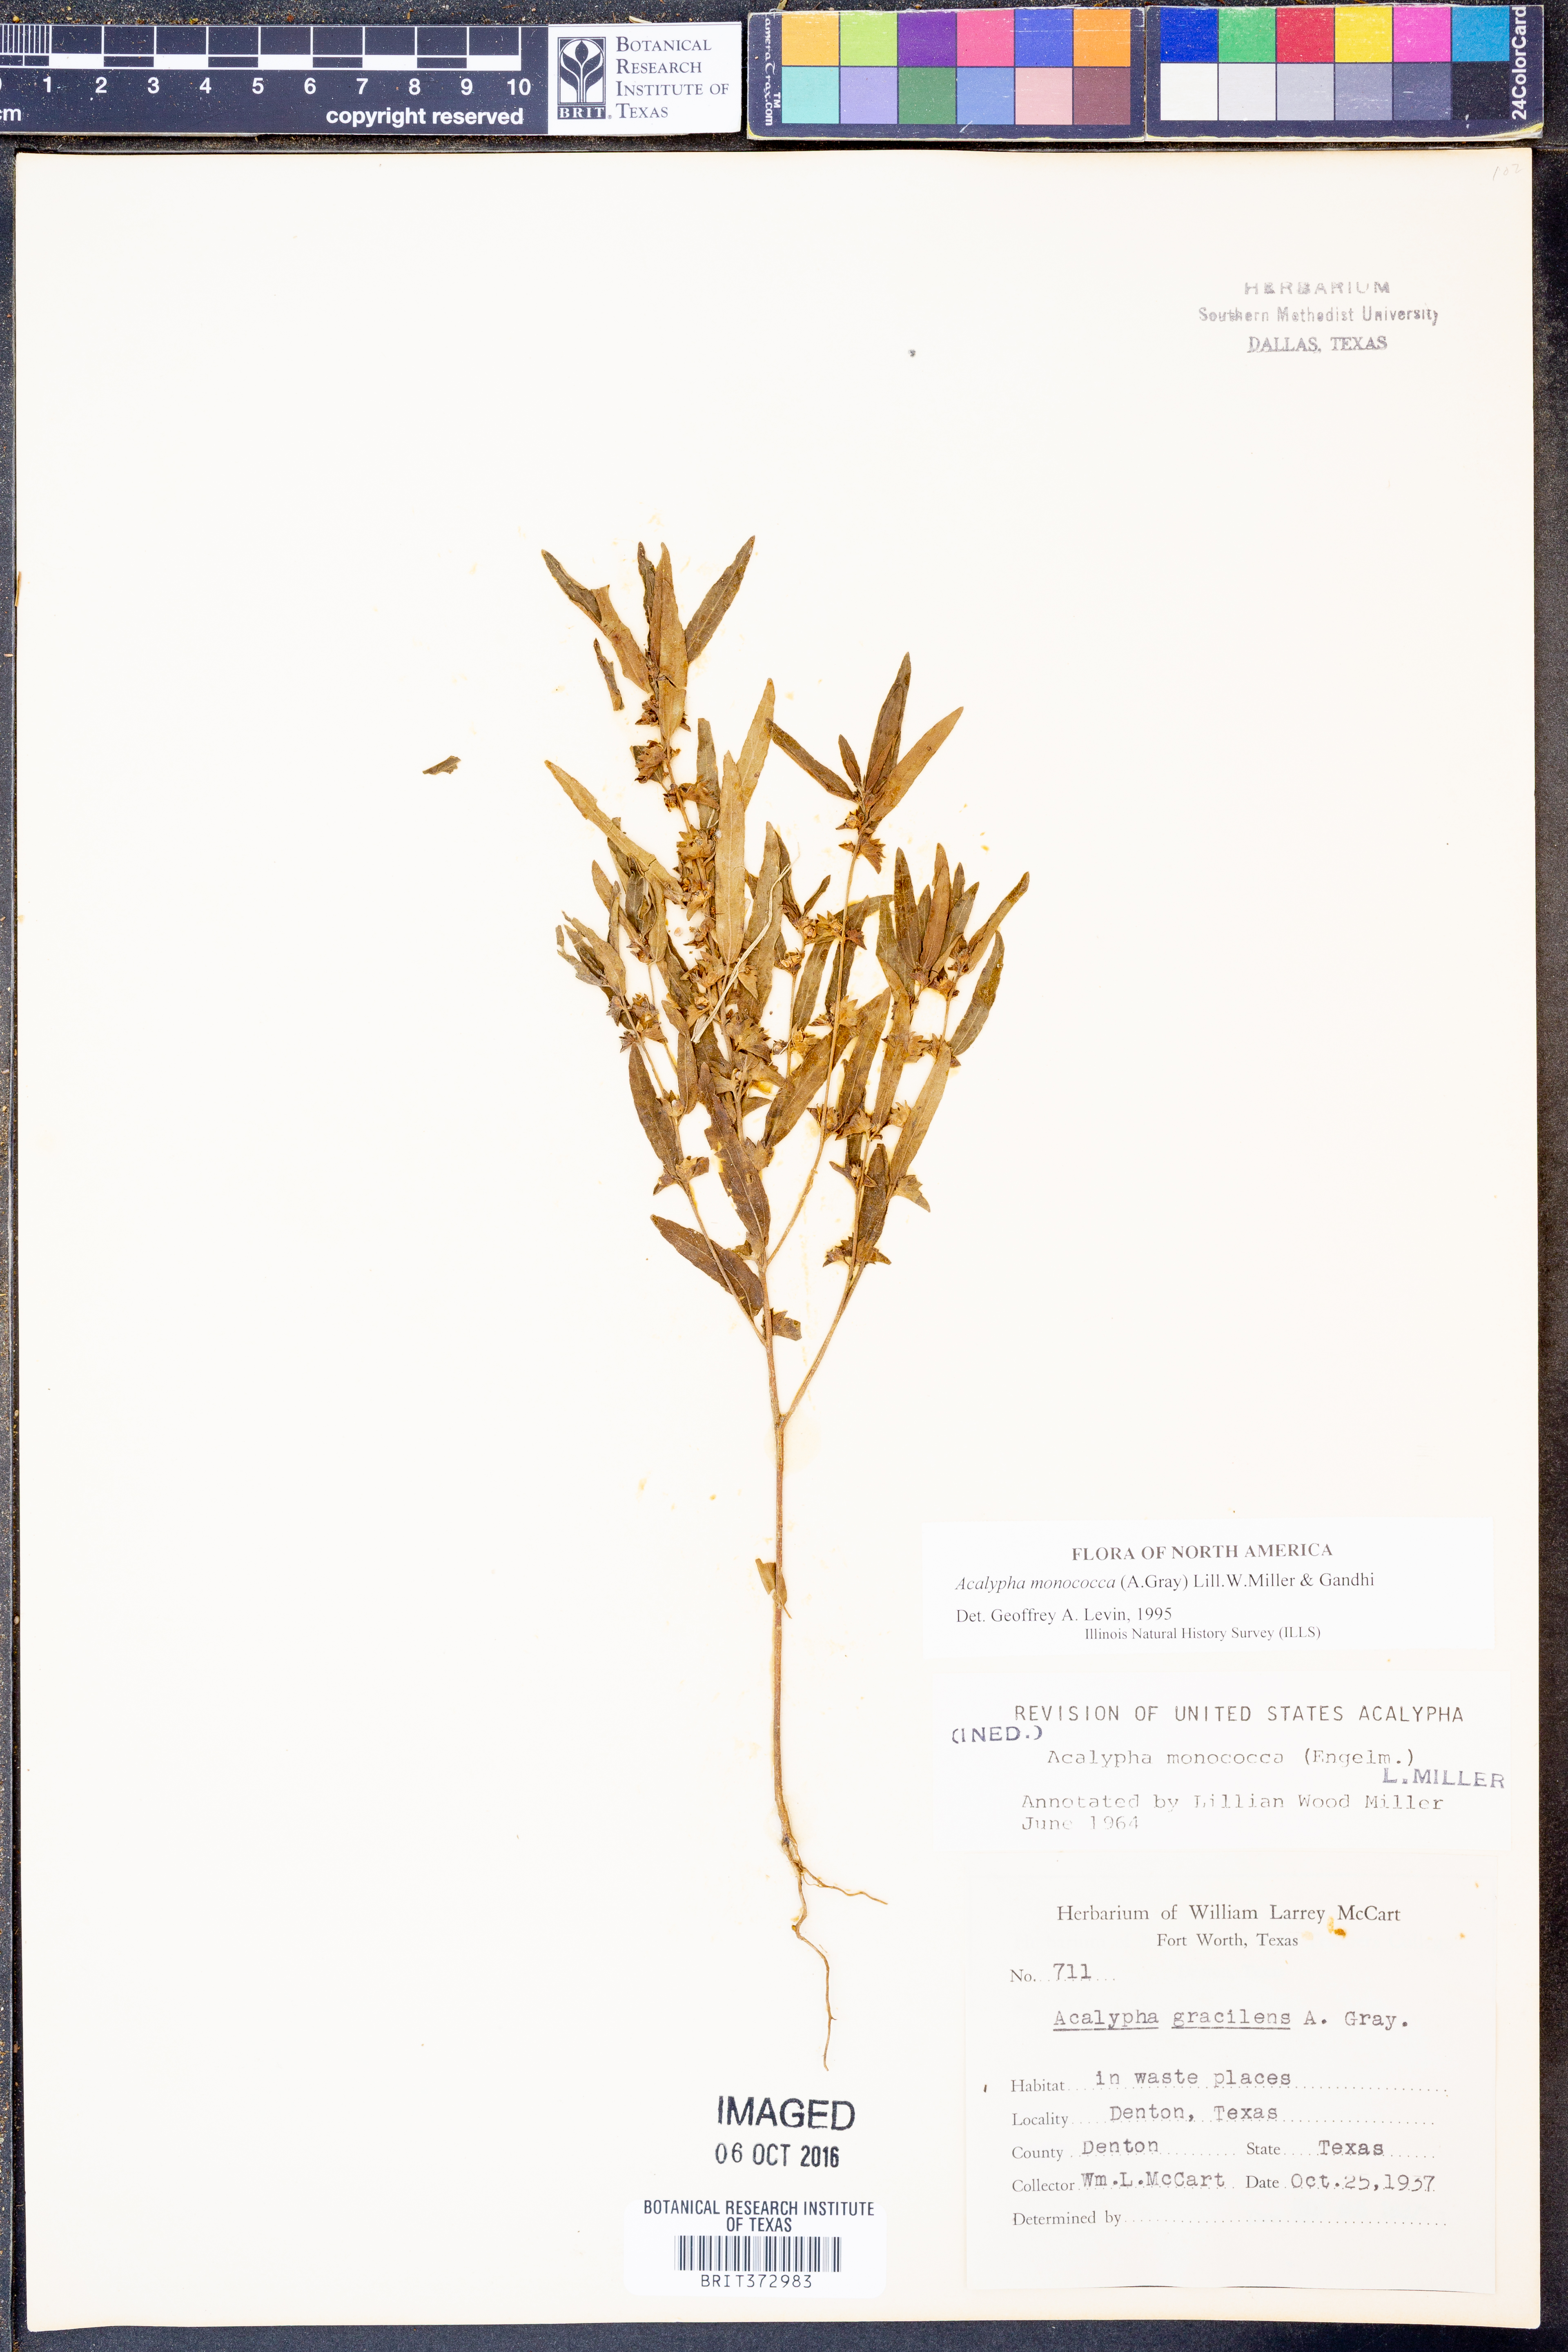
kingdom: Plantae
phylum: Tracheophyta
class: Magnoliopsida
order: Malpighiales
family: Euphorbiaceae
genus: Acalypha
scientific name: Acalypha monococca
